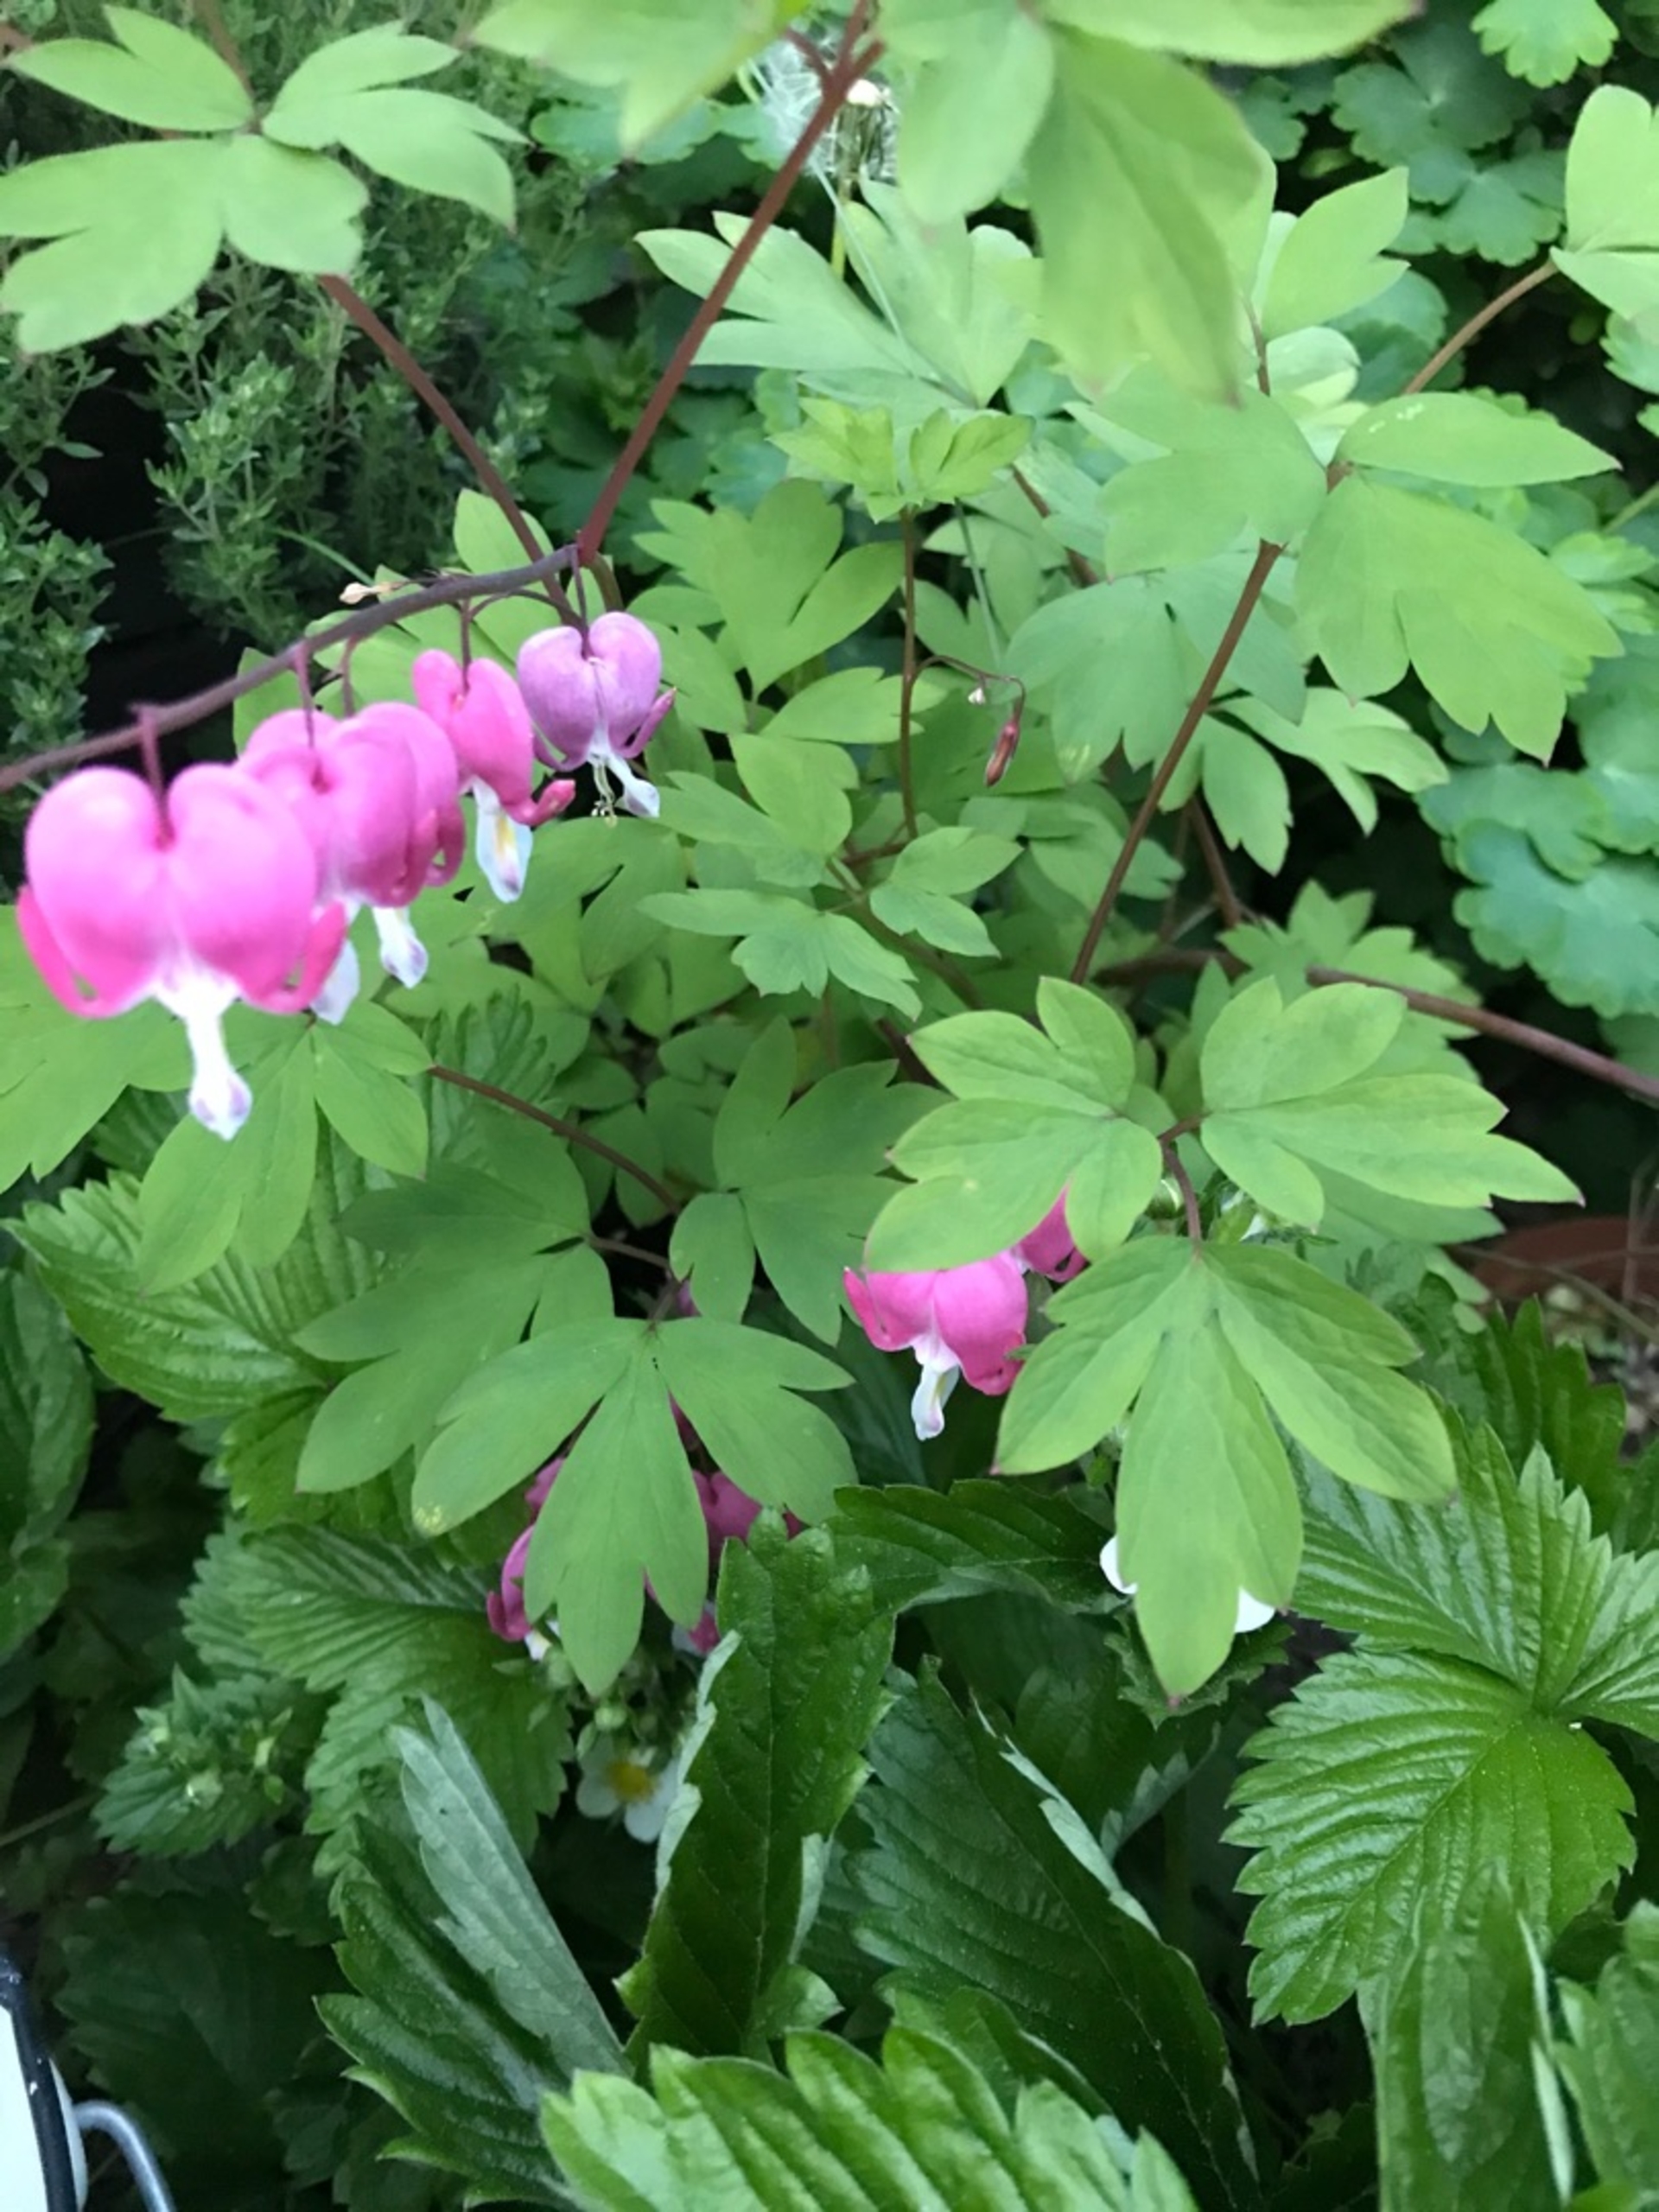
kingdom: Plantae
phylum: Tracheophyta
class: Magnoliopsida
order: Ranunculales
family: Papaveraceae
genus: Lamprocapnos
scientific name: Lamprocapnos spectabilis
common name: Løjtnantshjerte
